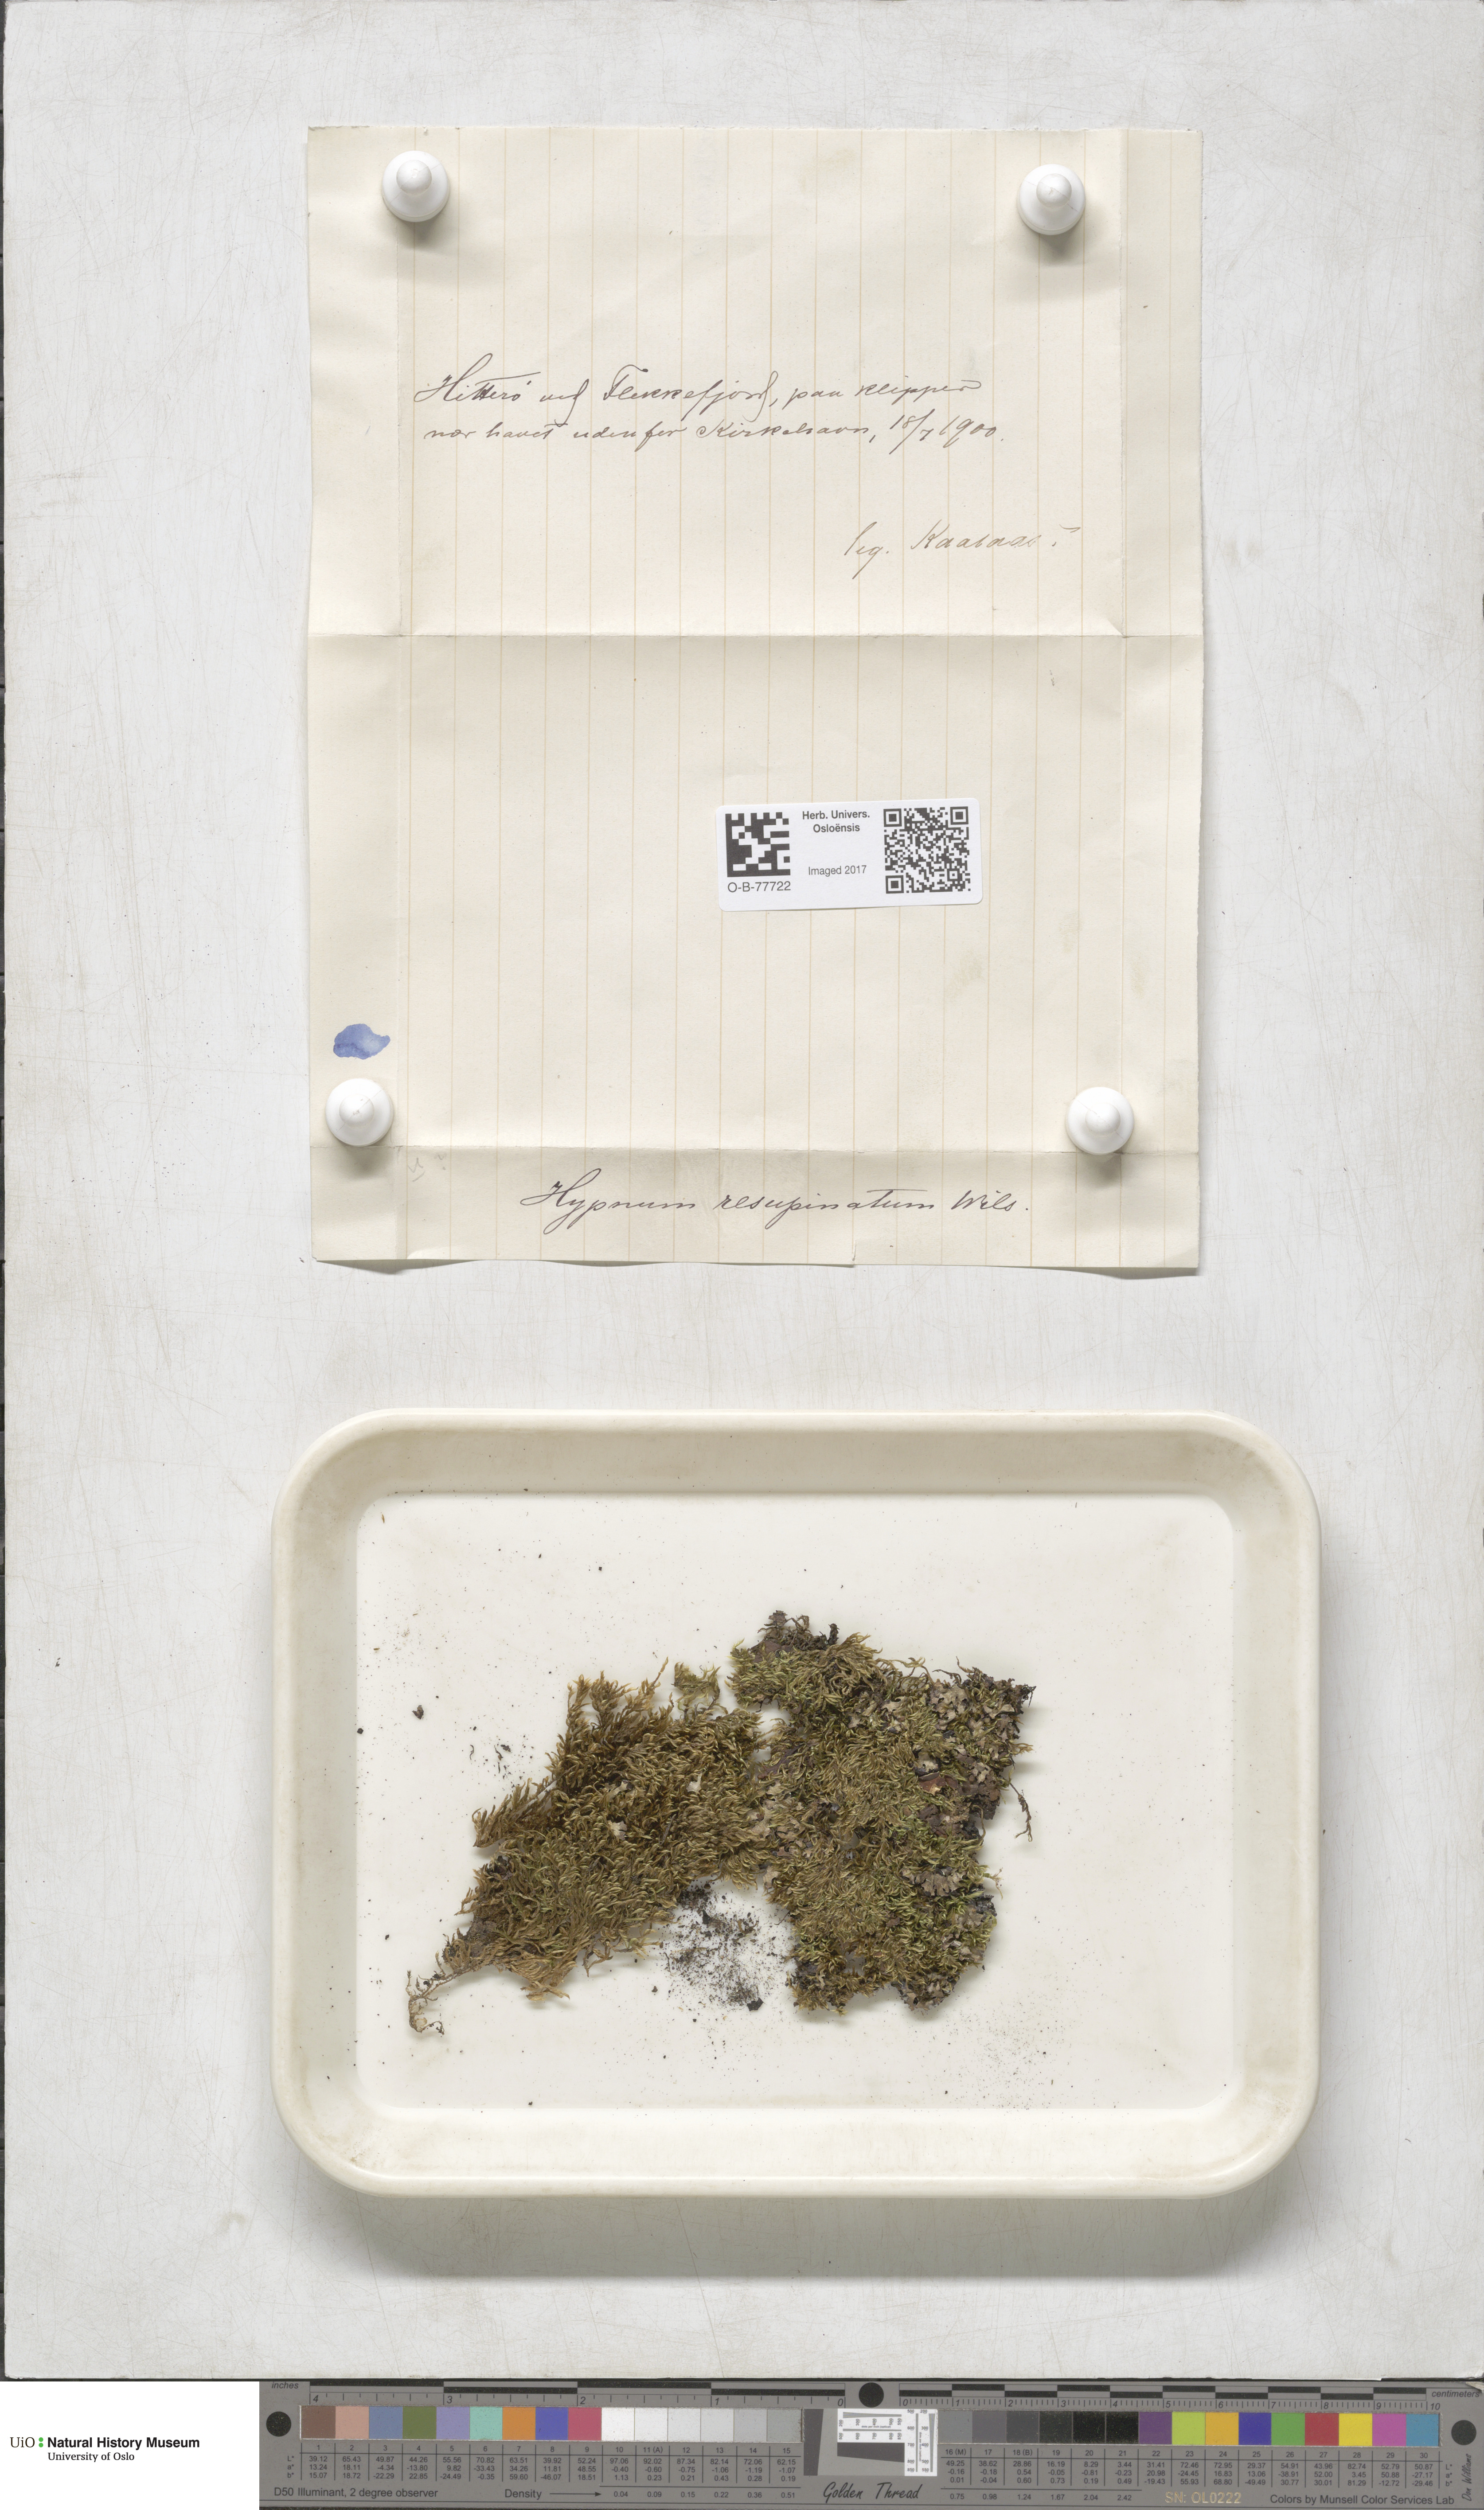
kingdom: Plantae
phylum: Bryophyta
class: Bryopsida
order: Hypnales
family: Hypnaceae
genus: Hypnum
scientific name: Hypnum resupinatum
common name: Supine plait-moss
